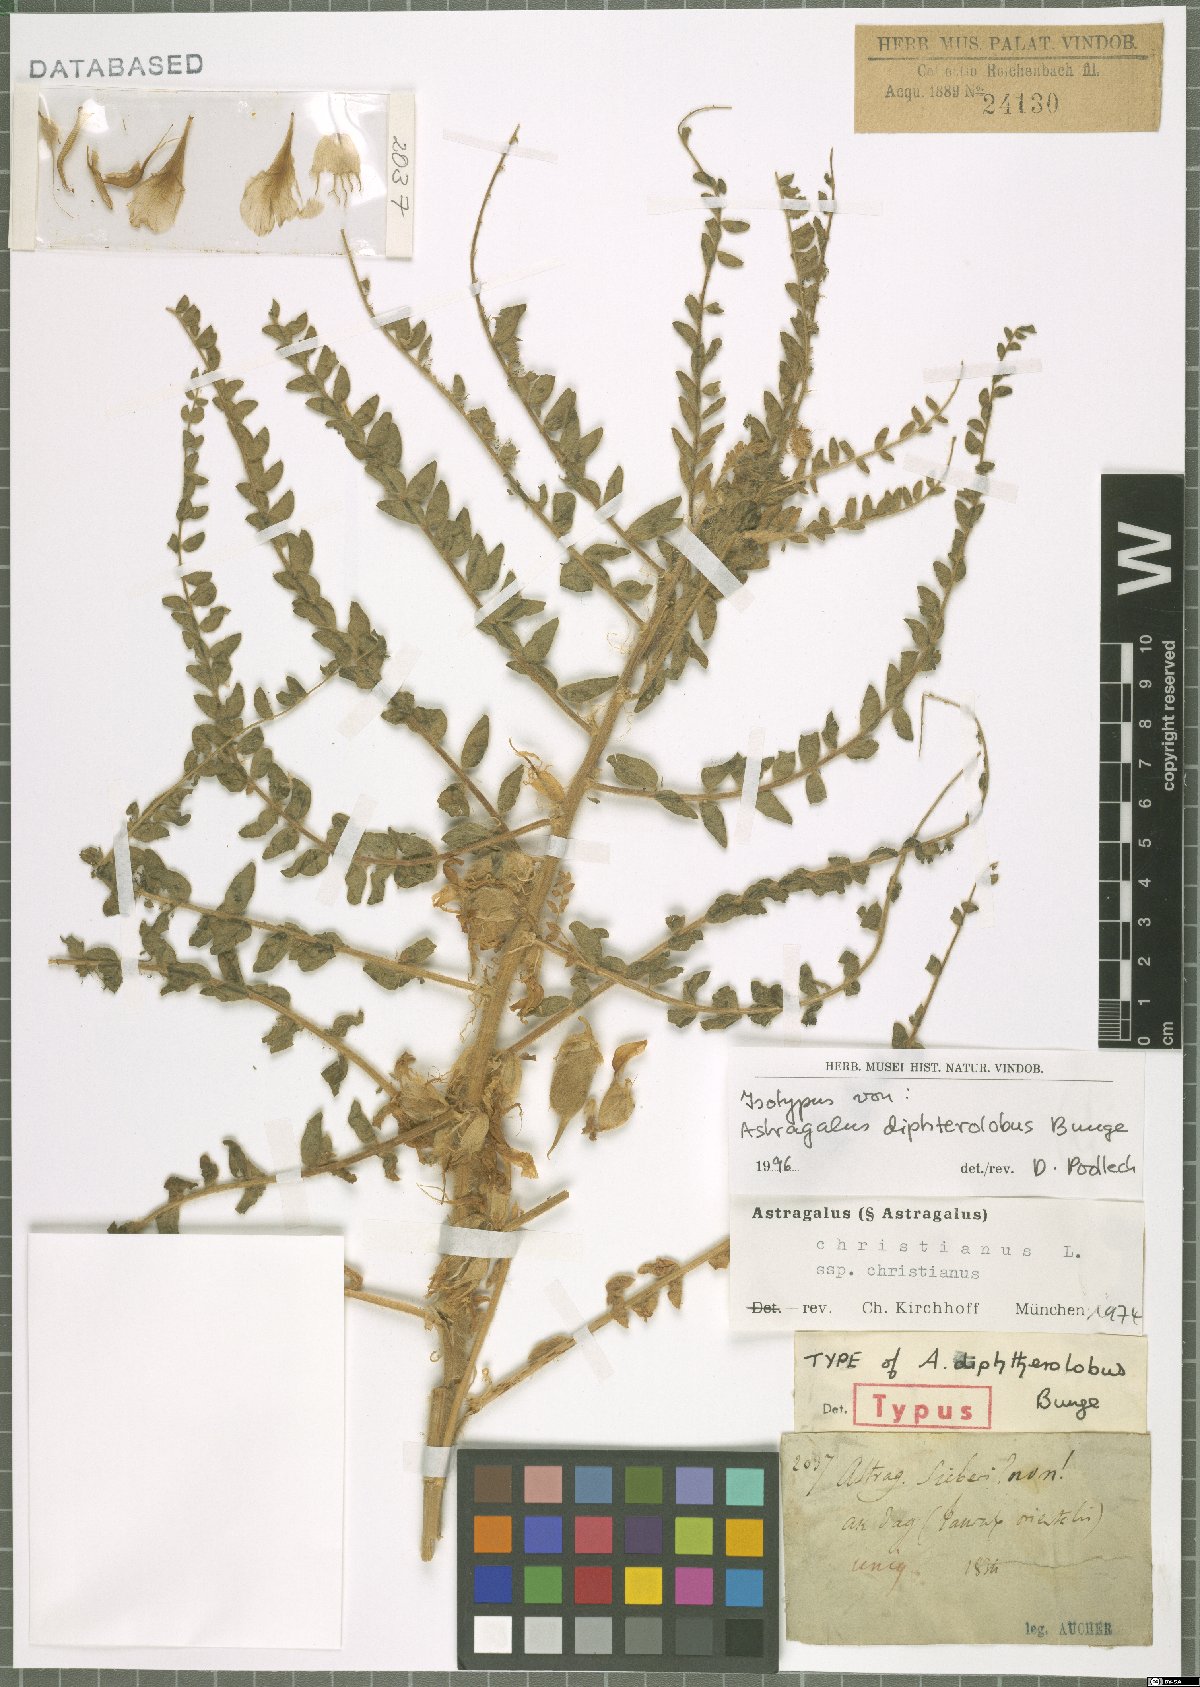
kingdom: Plantae
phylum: Tracheophyta
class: Magnoliopsida
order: Fabales
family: Fabaceae
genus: Astragalus
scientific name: Astragalus christianus
